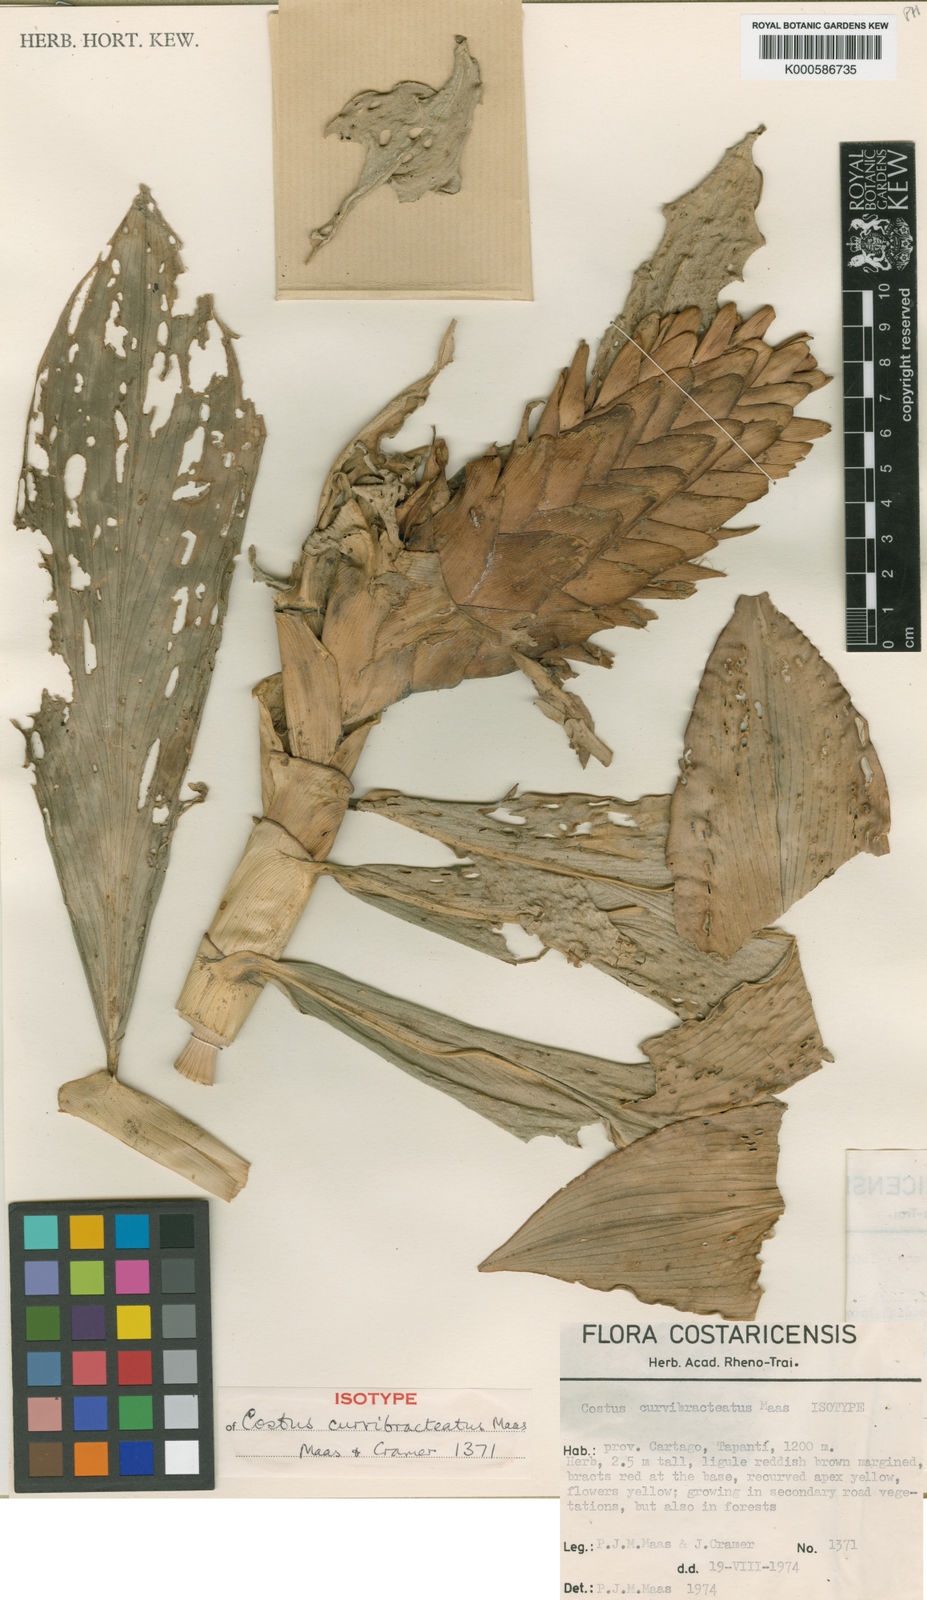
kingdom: Plantae
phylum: Tracheophyta
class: Liliopsida
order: Zingiberales
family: Costaceae
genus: Costus
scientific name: Costus curvibracteatus
